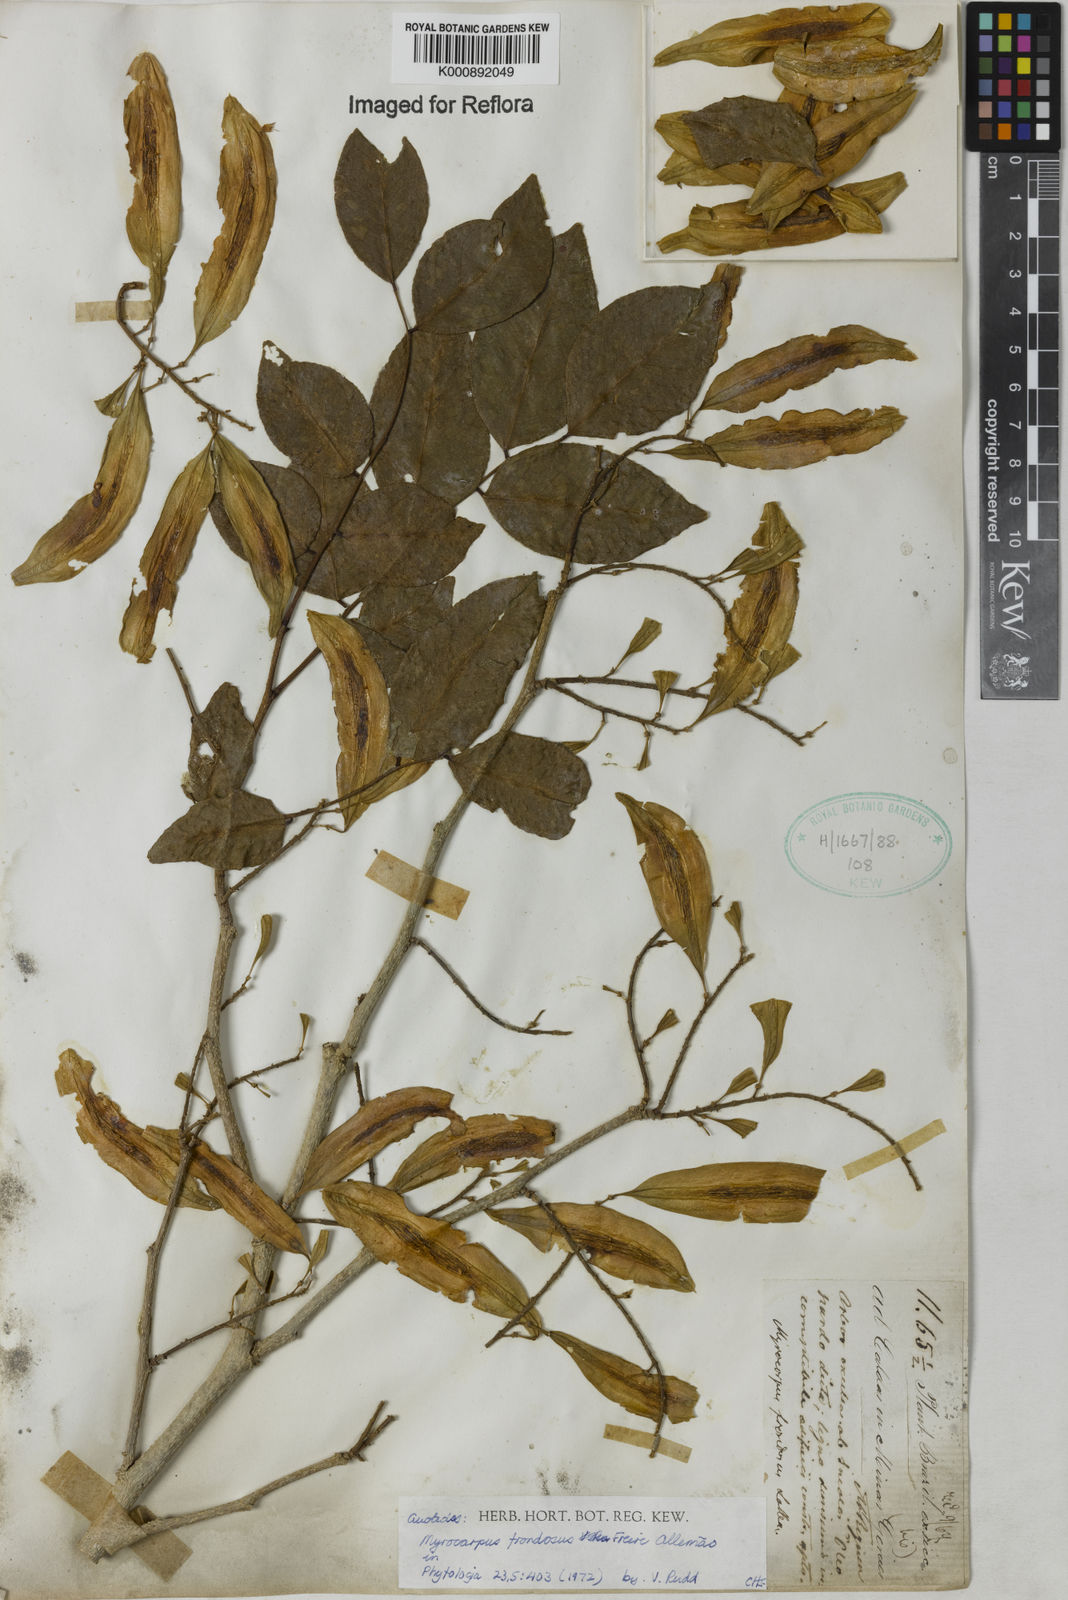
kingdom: Plantae
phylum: Tracheophyta
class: Magnoliopsida
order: Fabales
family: Fabaceae
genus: Myrocarpus
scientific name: Myrocarpus
